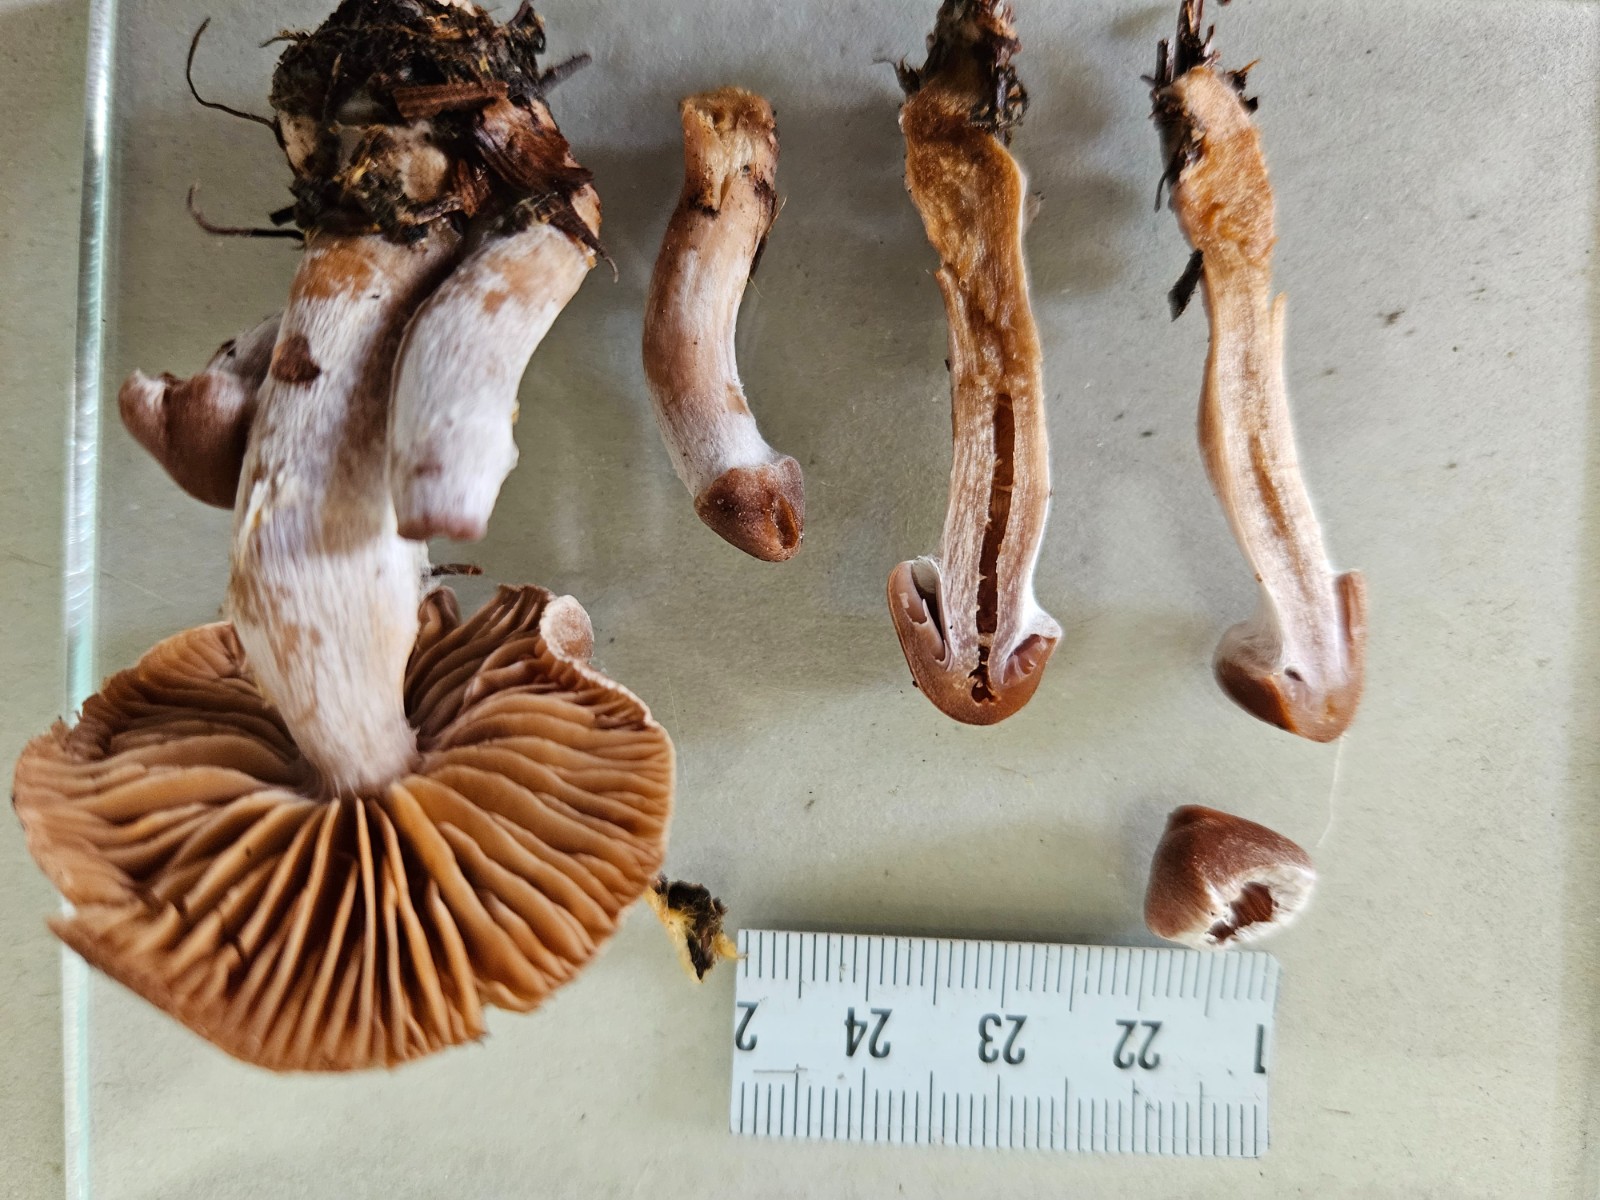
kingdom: Fungi
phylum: Basidiomycota
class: Agaricomycetes
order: Agaricales
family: Cortinariaceae
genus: Cortinarius
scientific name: Cortinarius
